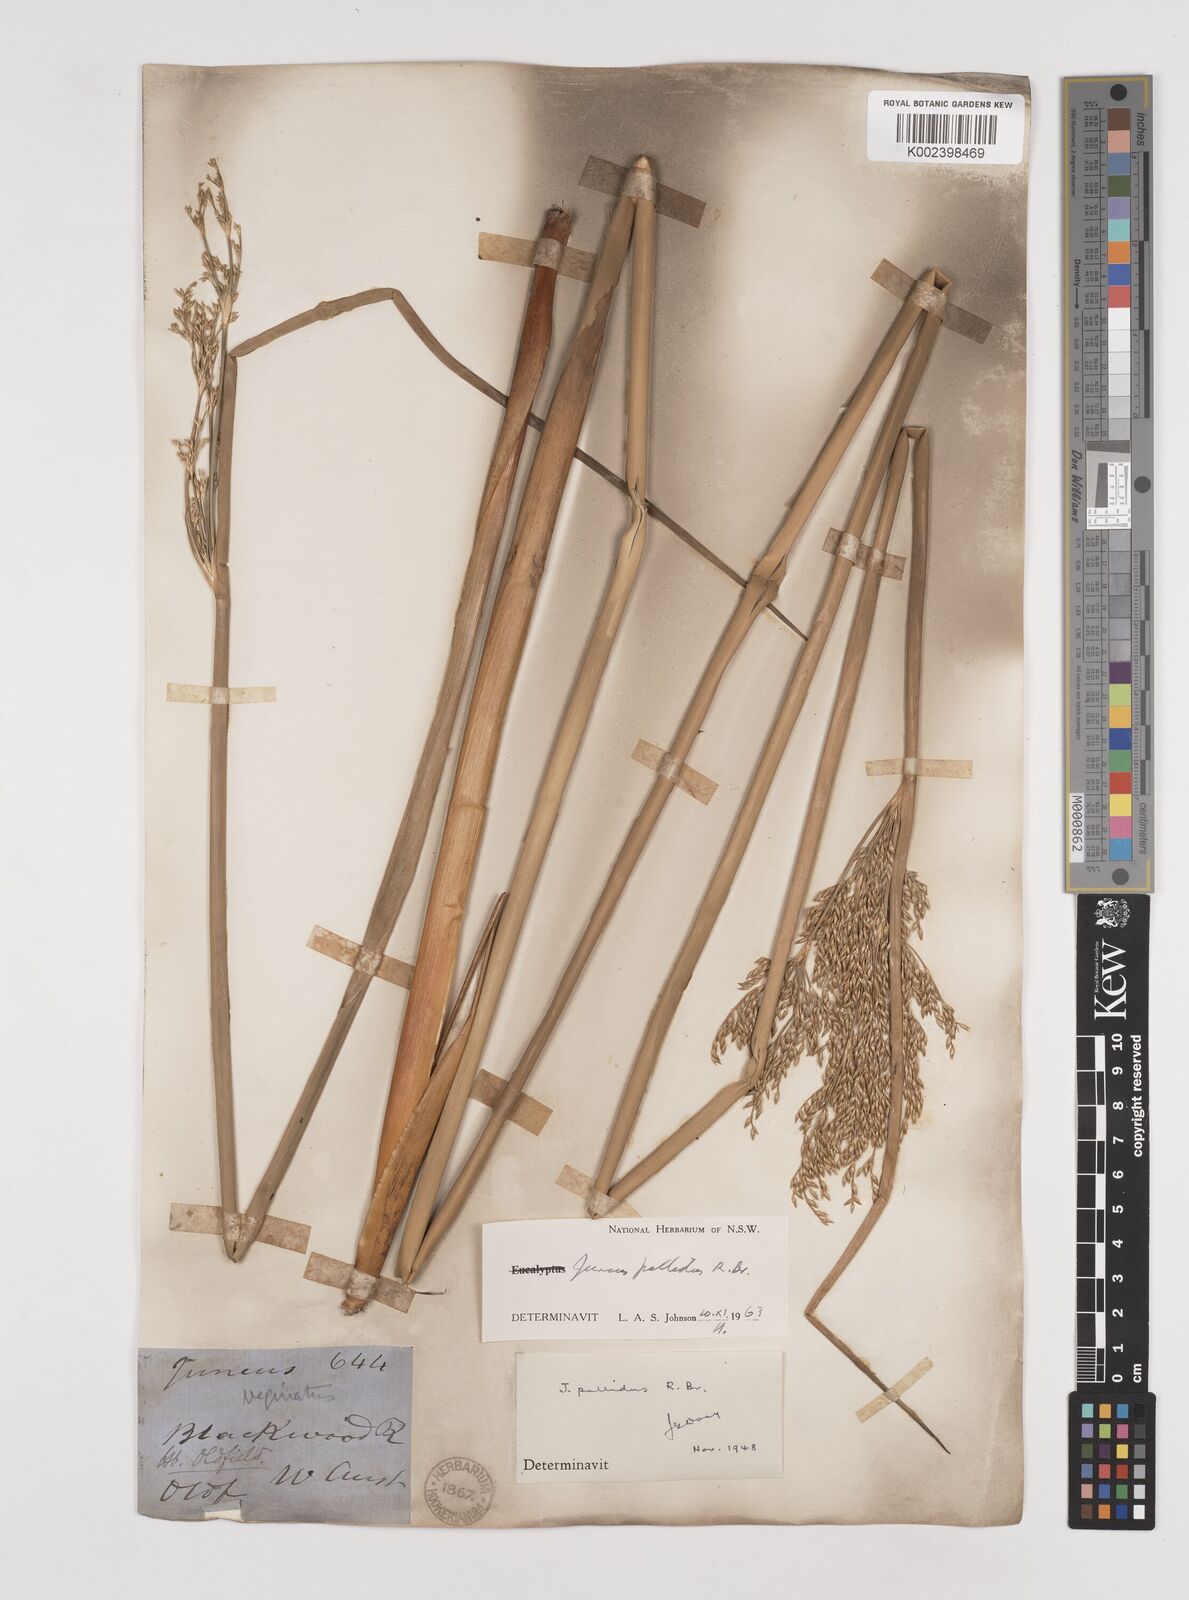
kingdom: Plantae
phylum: Tracheophyta
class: Liliopsida
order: Poales
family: Juncaceae
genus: Juncus
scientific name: Juncus pallidus
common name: Great soft-rush
